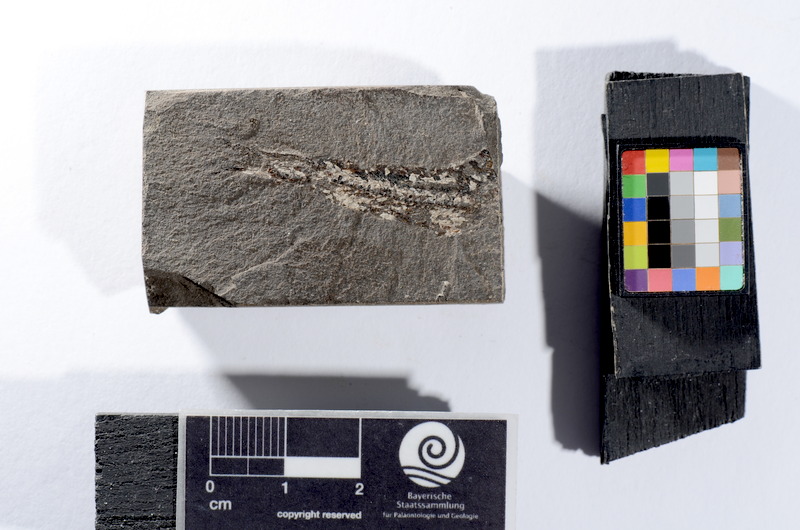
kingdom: Animalia
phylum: Chordata
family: Leptolepididae
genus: Leptolepis
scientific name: Leptolepis coryphaenoides
